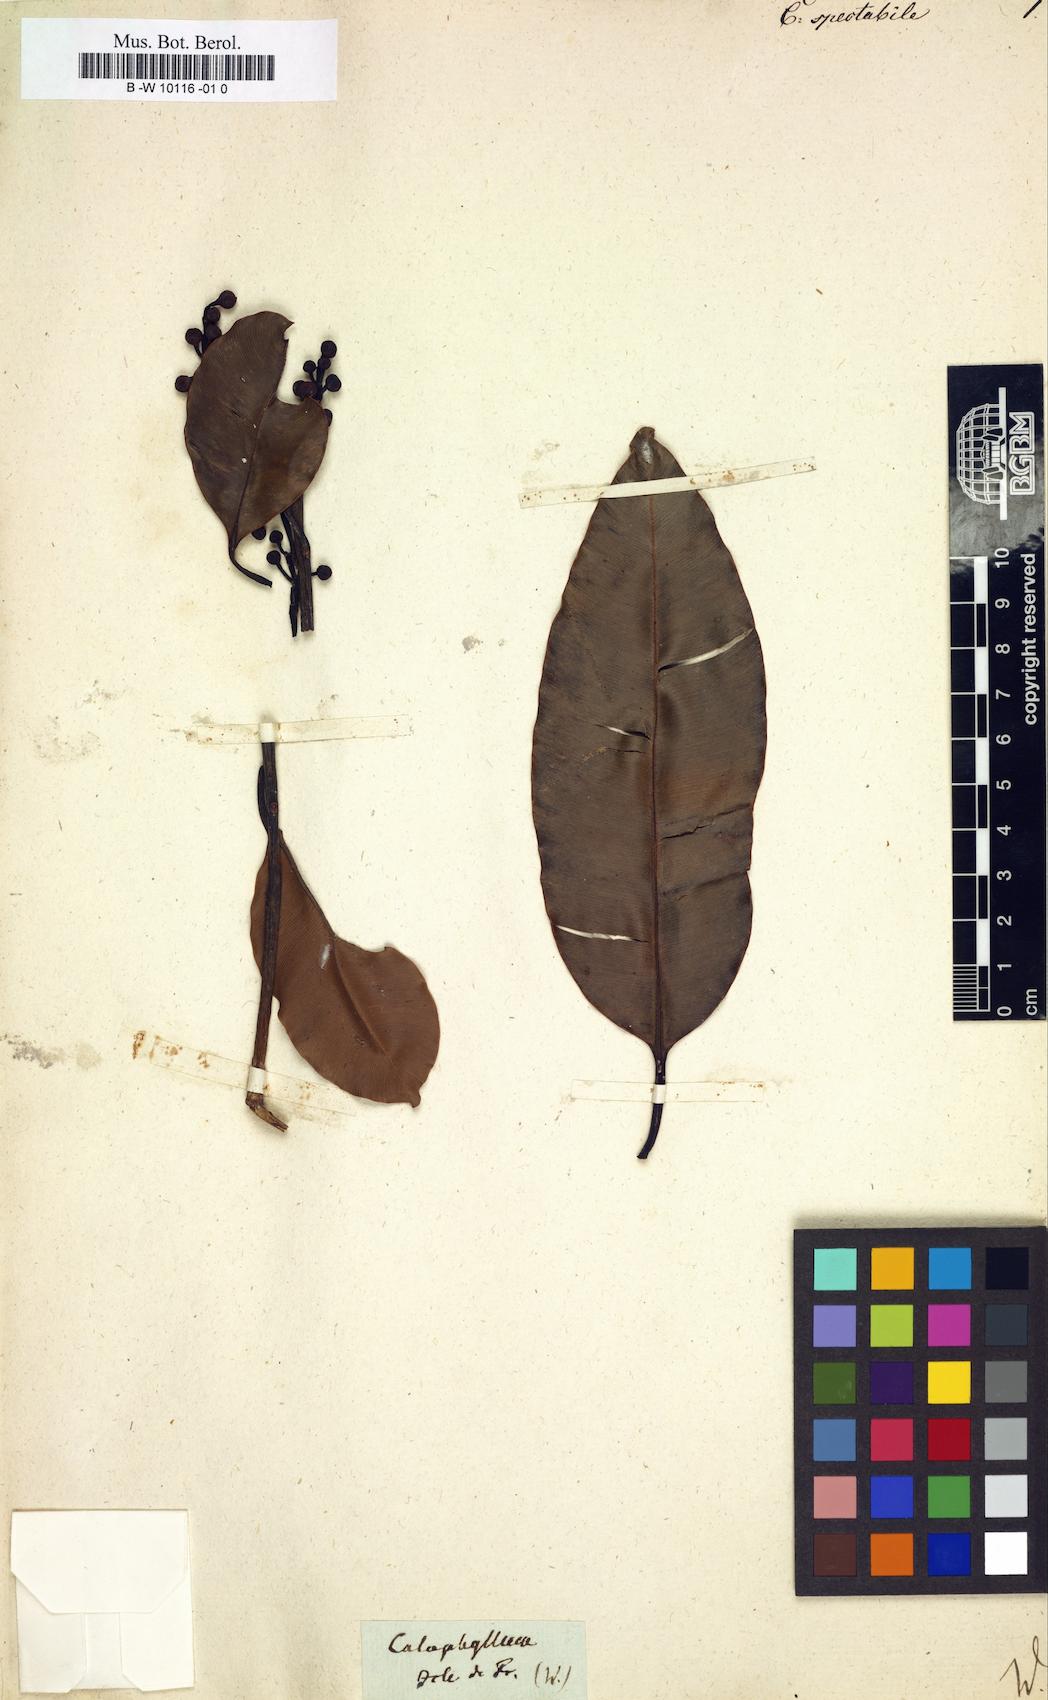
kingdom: Plantae
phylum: Tracheophyta
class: Magnoliopsida
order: Malpighiales
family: Calophyllaceae
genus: Calophyllum
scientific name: Calophyllum
